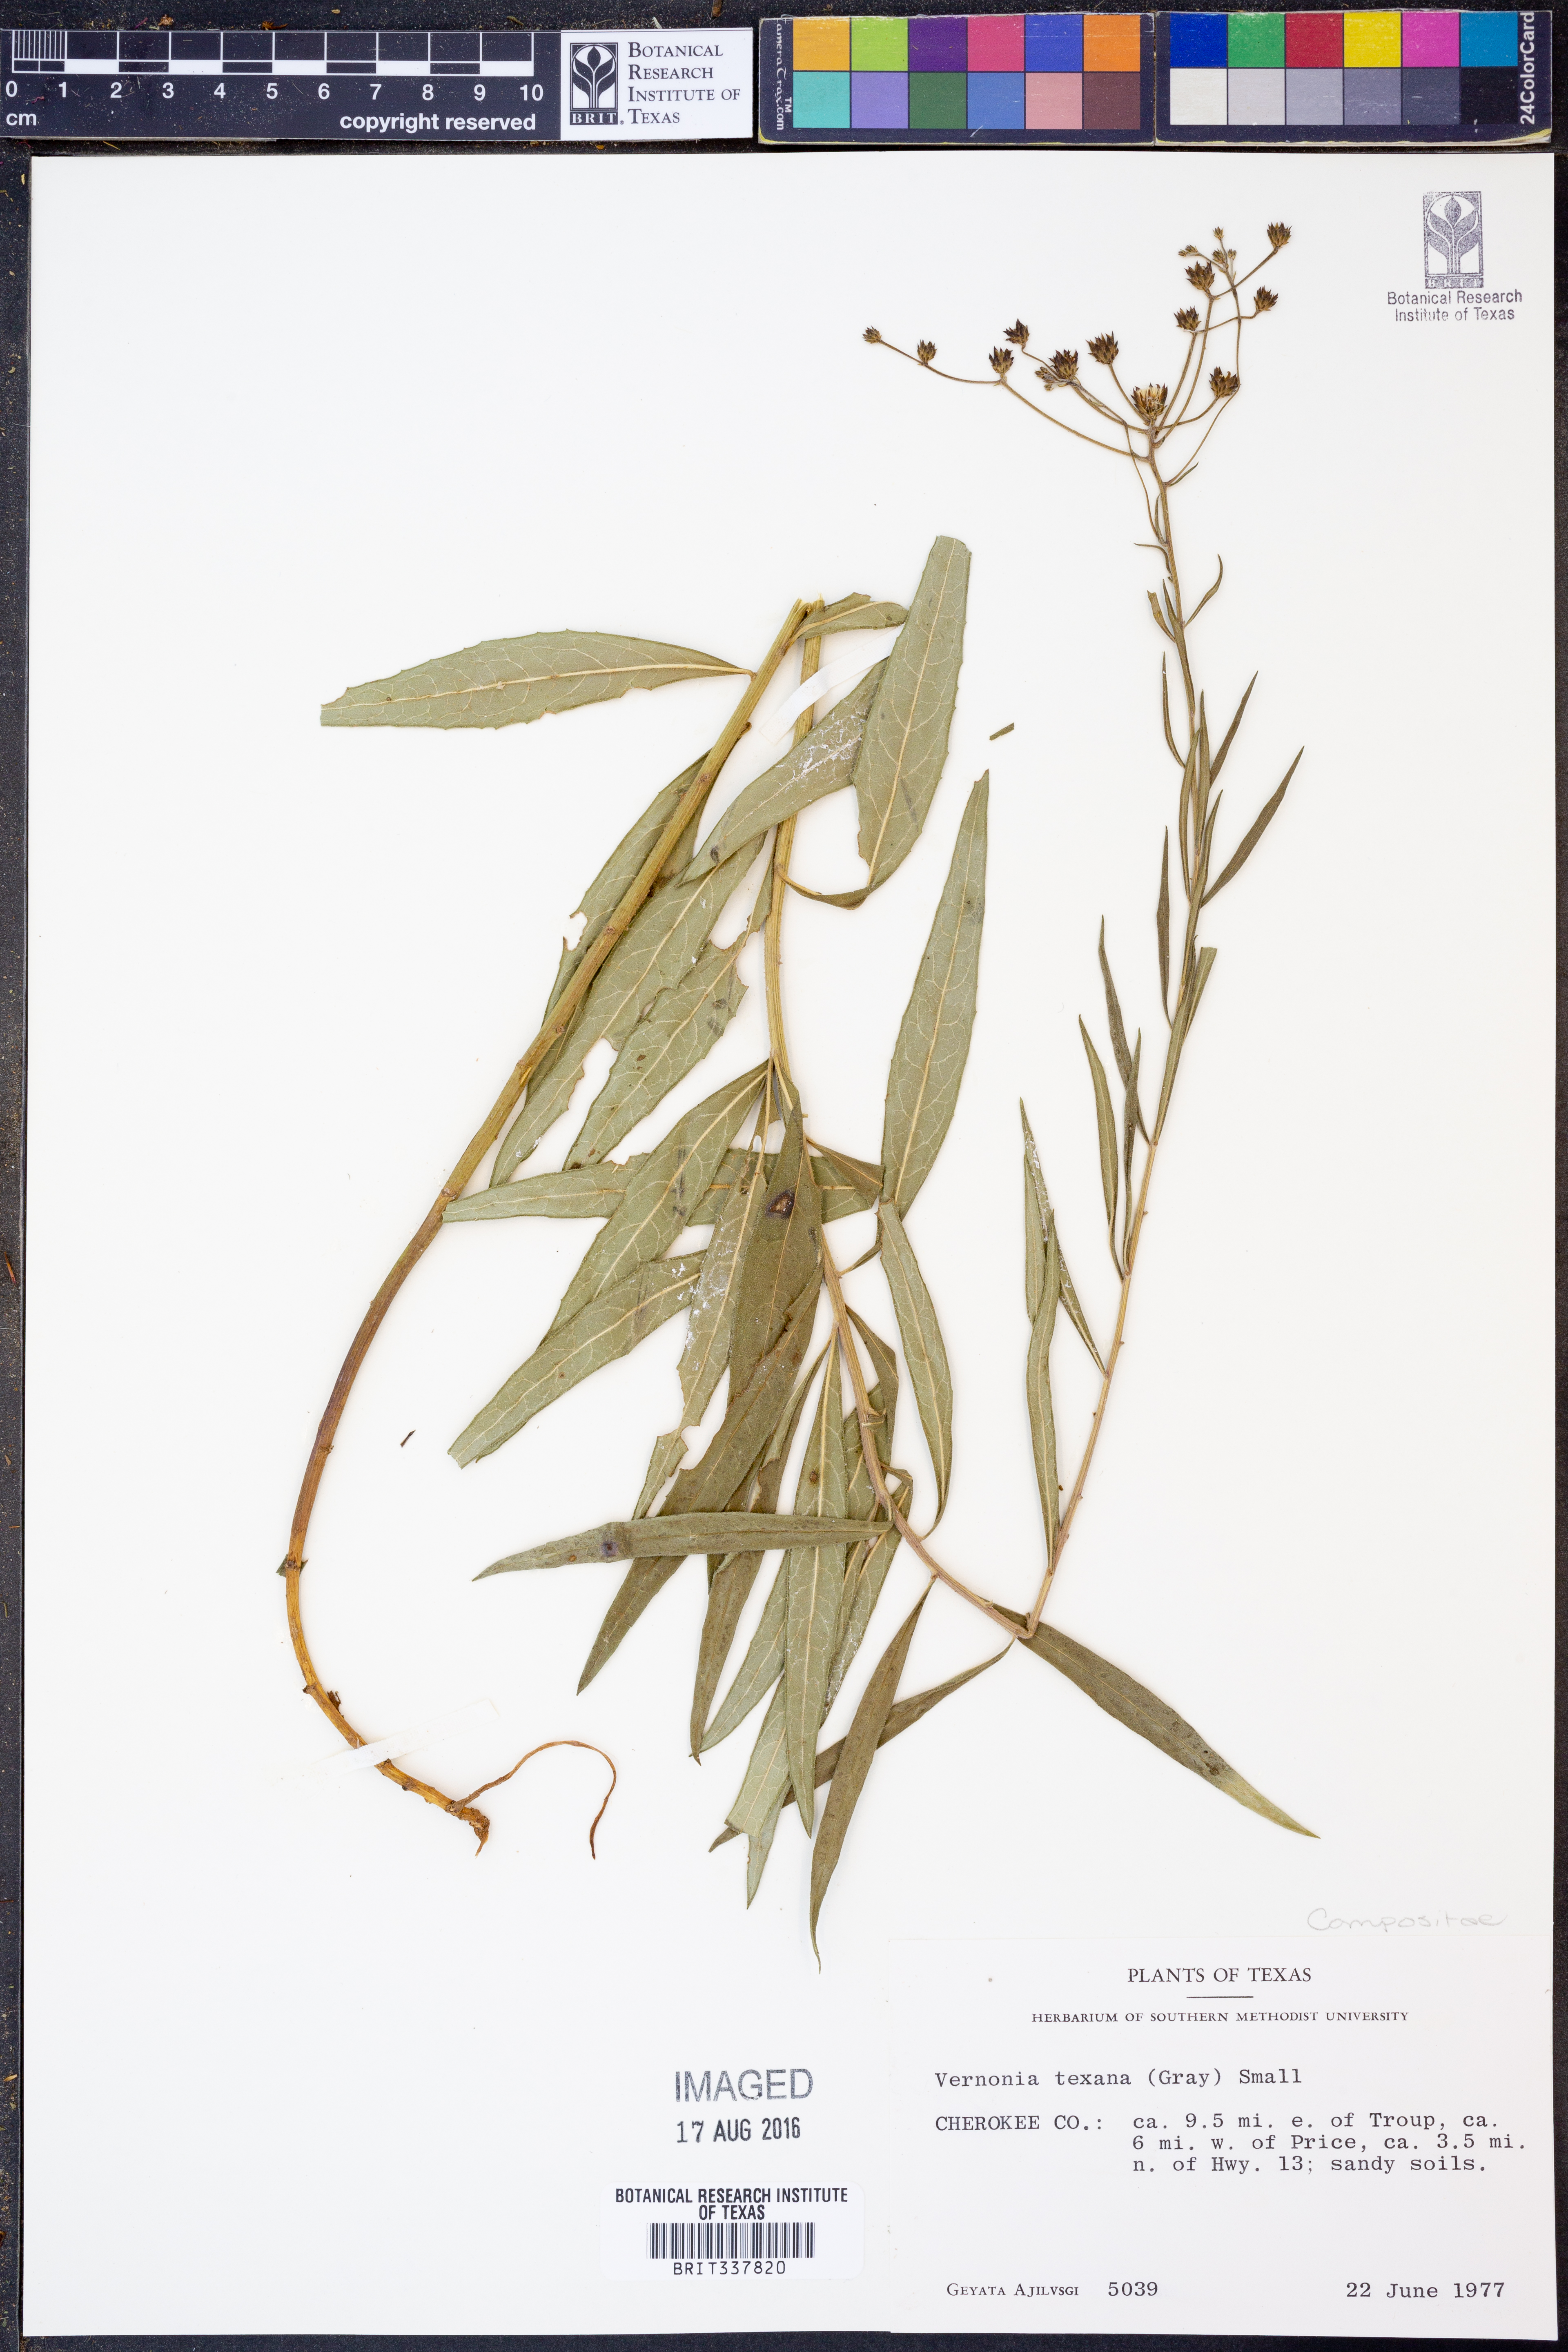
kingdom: Plantae
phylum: Tracheophyta
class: Magnoliopsida
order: Asterales
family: Asteraceae
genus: Vernonia
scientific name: Vernonia texana
